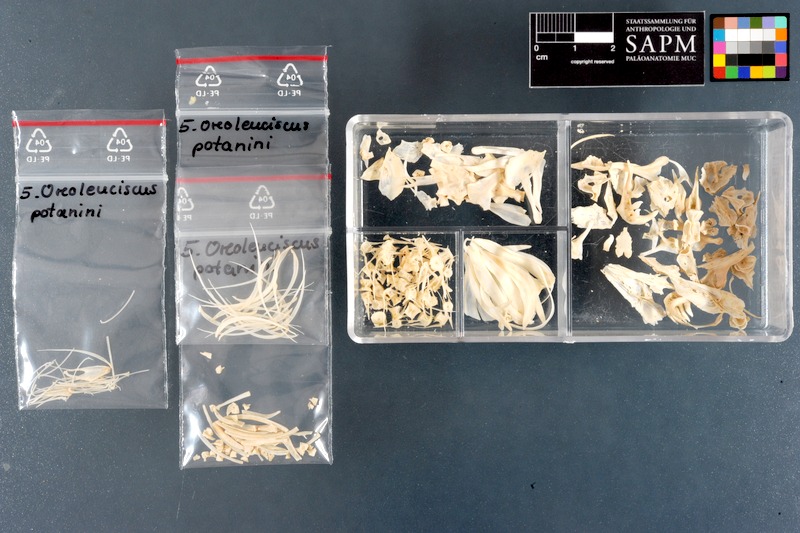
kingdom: Animalia
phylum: Chordata
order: Cypriniformes
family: Cyprinidae
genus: Oreoleuciscus
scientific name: Oreoleuciscus potanini
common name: Altai osman
